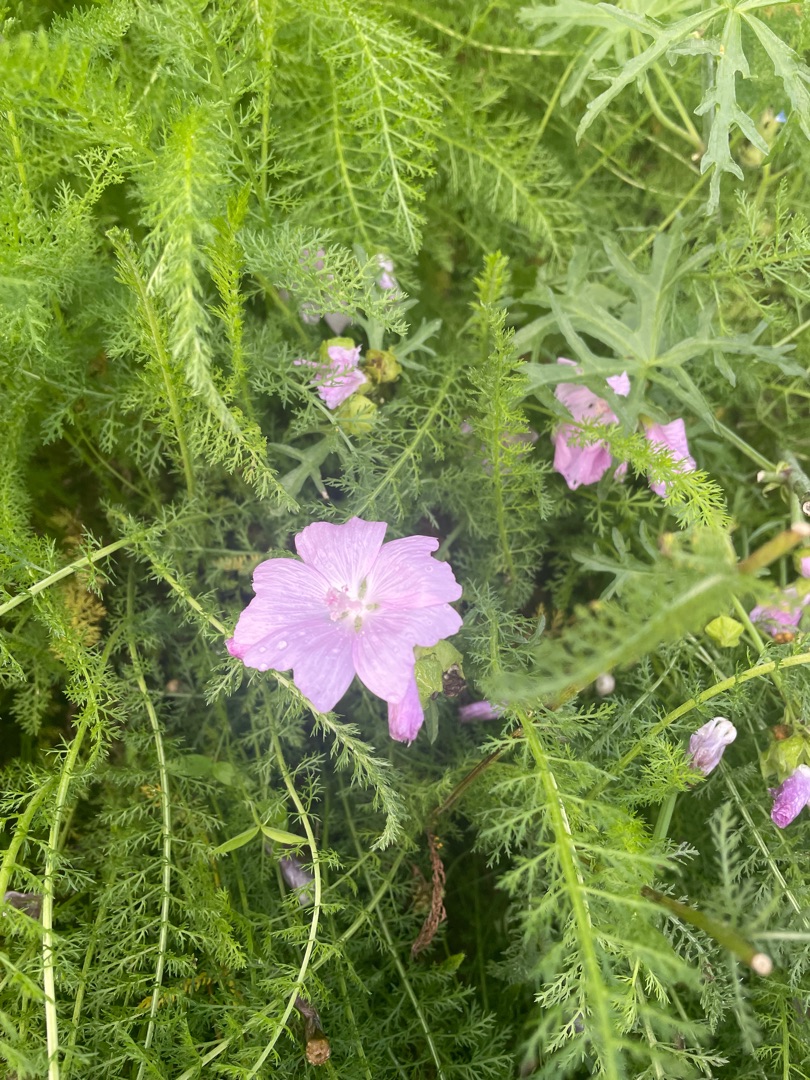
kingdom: Plantae
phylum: Tracheophyta
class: Magnoliopsida
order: Malvales
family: Malvaceae
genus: Malva
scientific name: Malva moschata
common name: Moskus-katost
